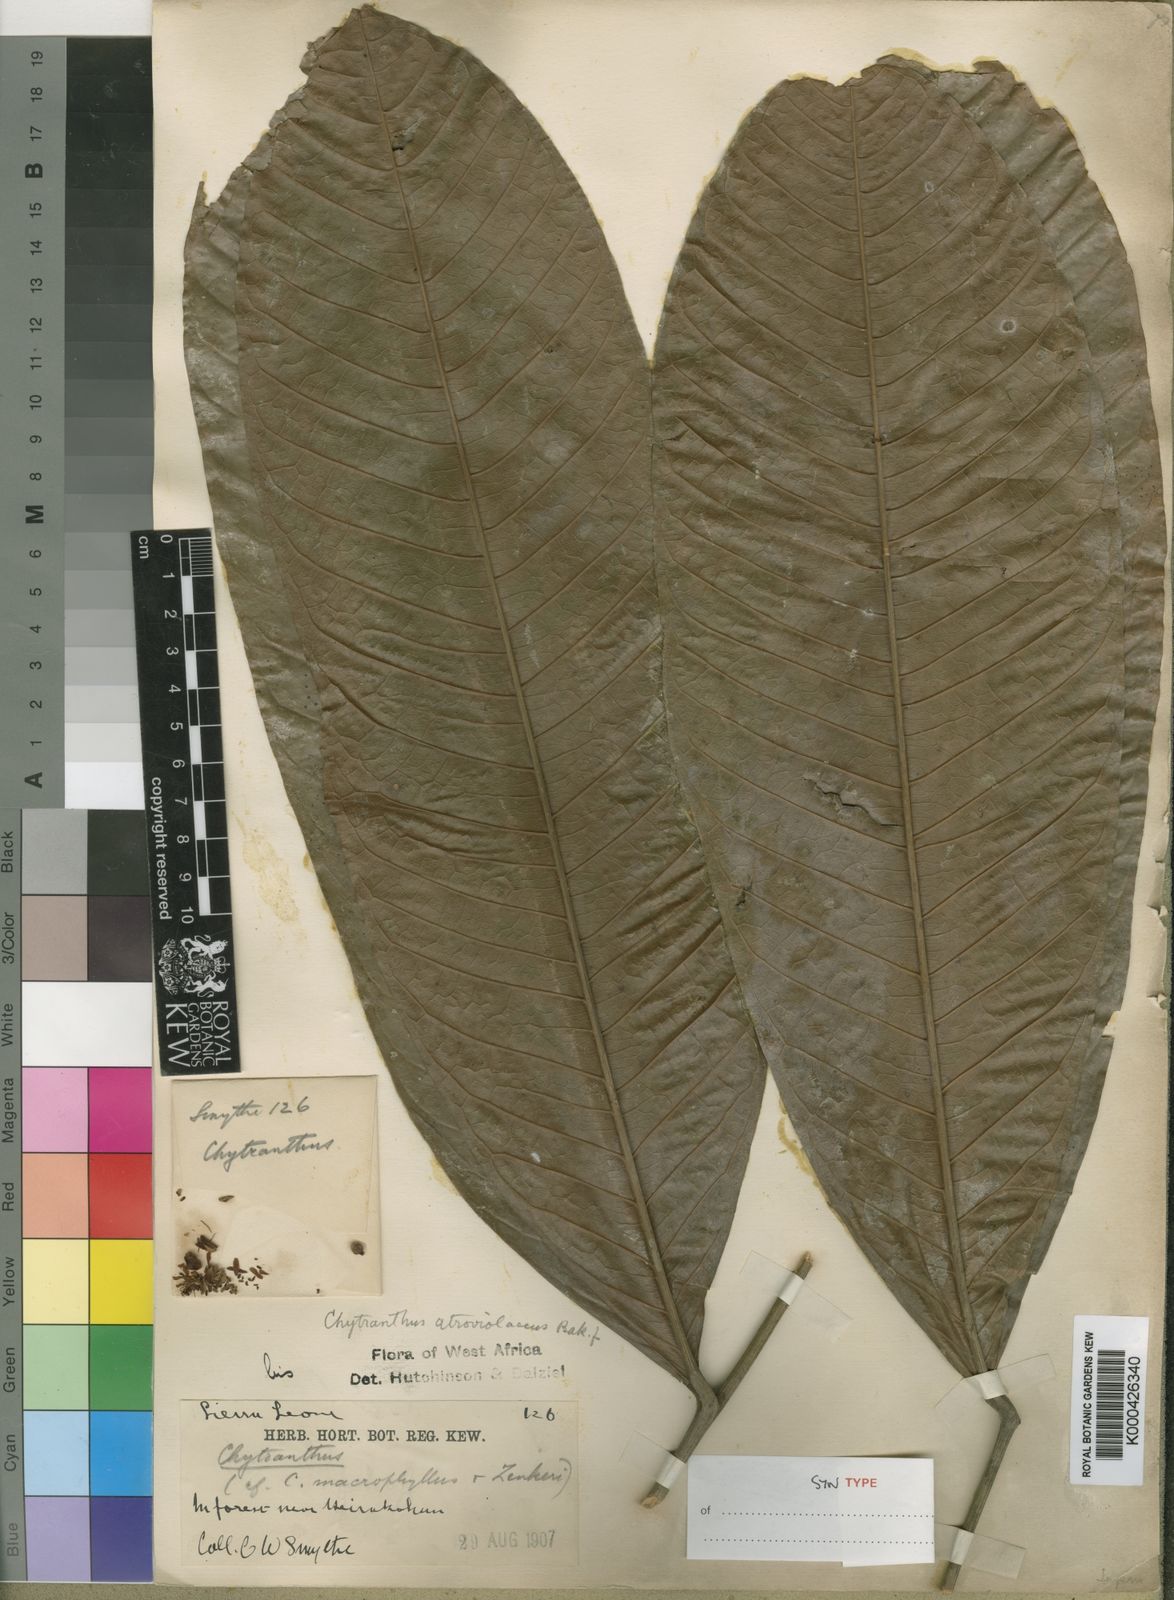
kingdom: Plantae
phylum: Tracheophyta
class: Magnoliopsida
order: Sapindales
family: Sapindaceae
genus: Chytranthus
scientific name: Chytranthus atroviolaceus
